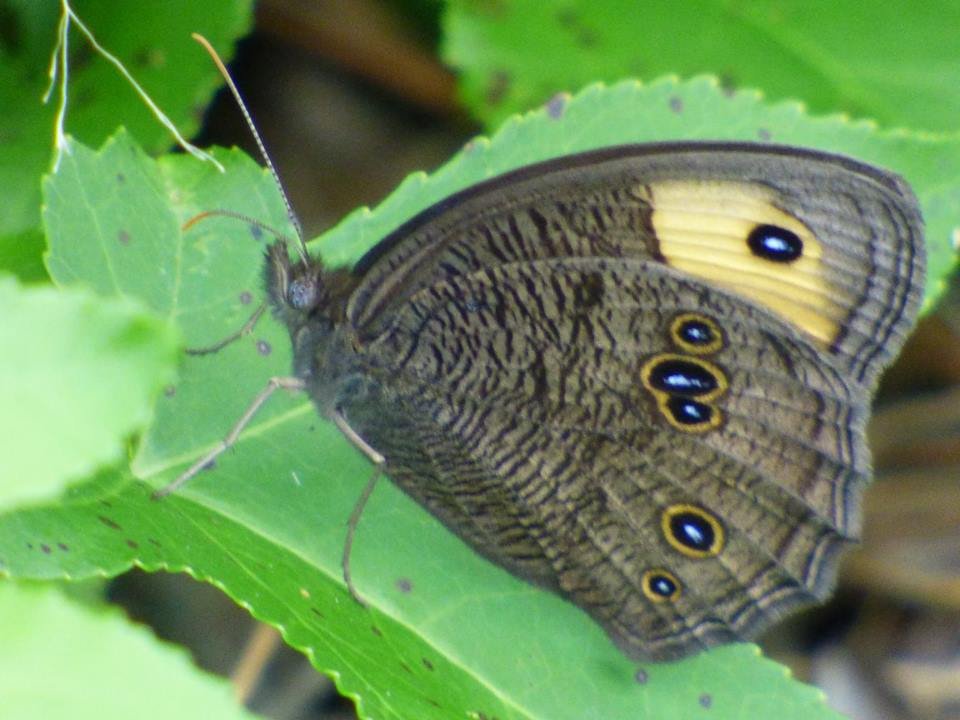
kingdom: Animalia
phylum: Arthropoda
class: Insecta
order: Lepidoptera
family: Nymphalidae
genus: Cercyonis
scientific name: Cercyonis pegala
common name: Common Wood-Nymph
